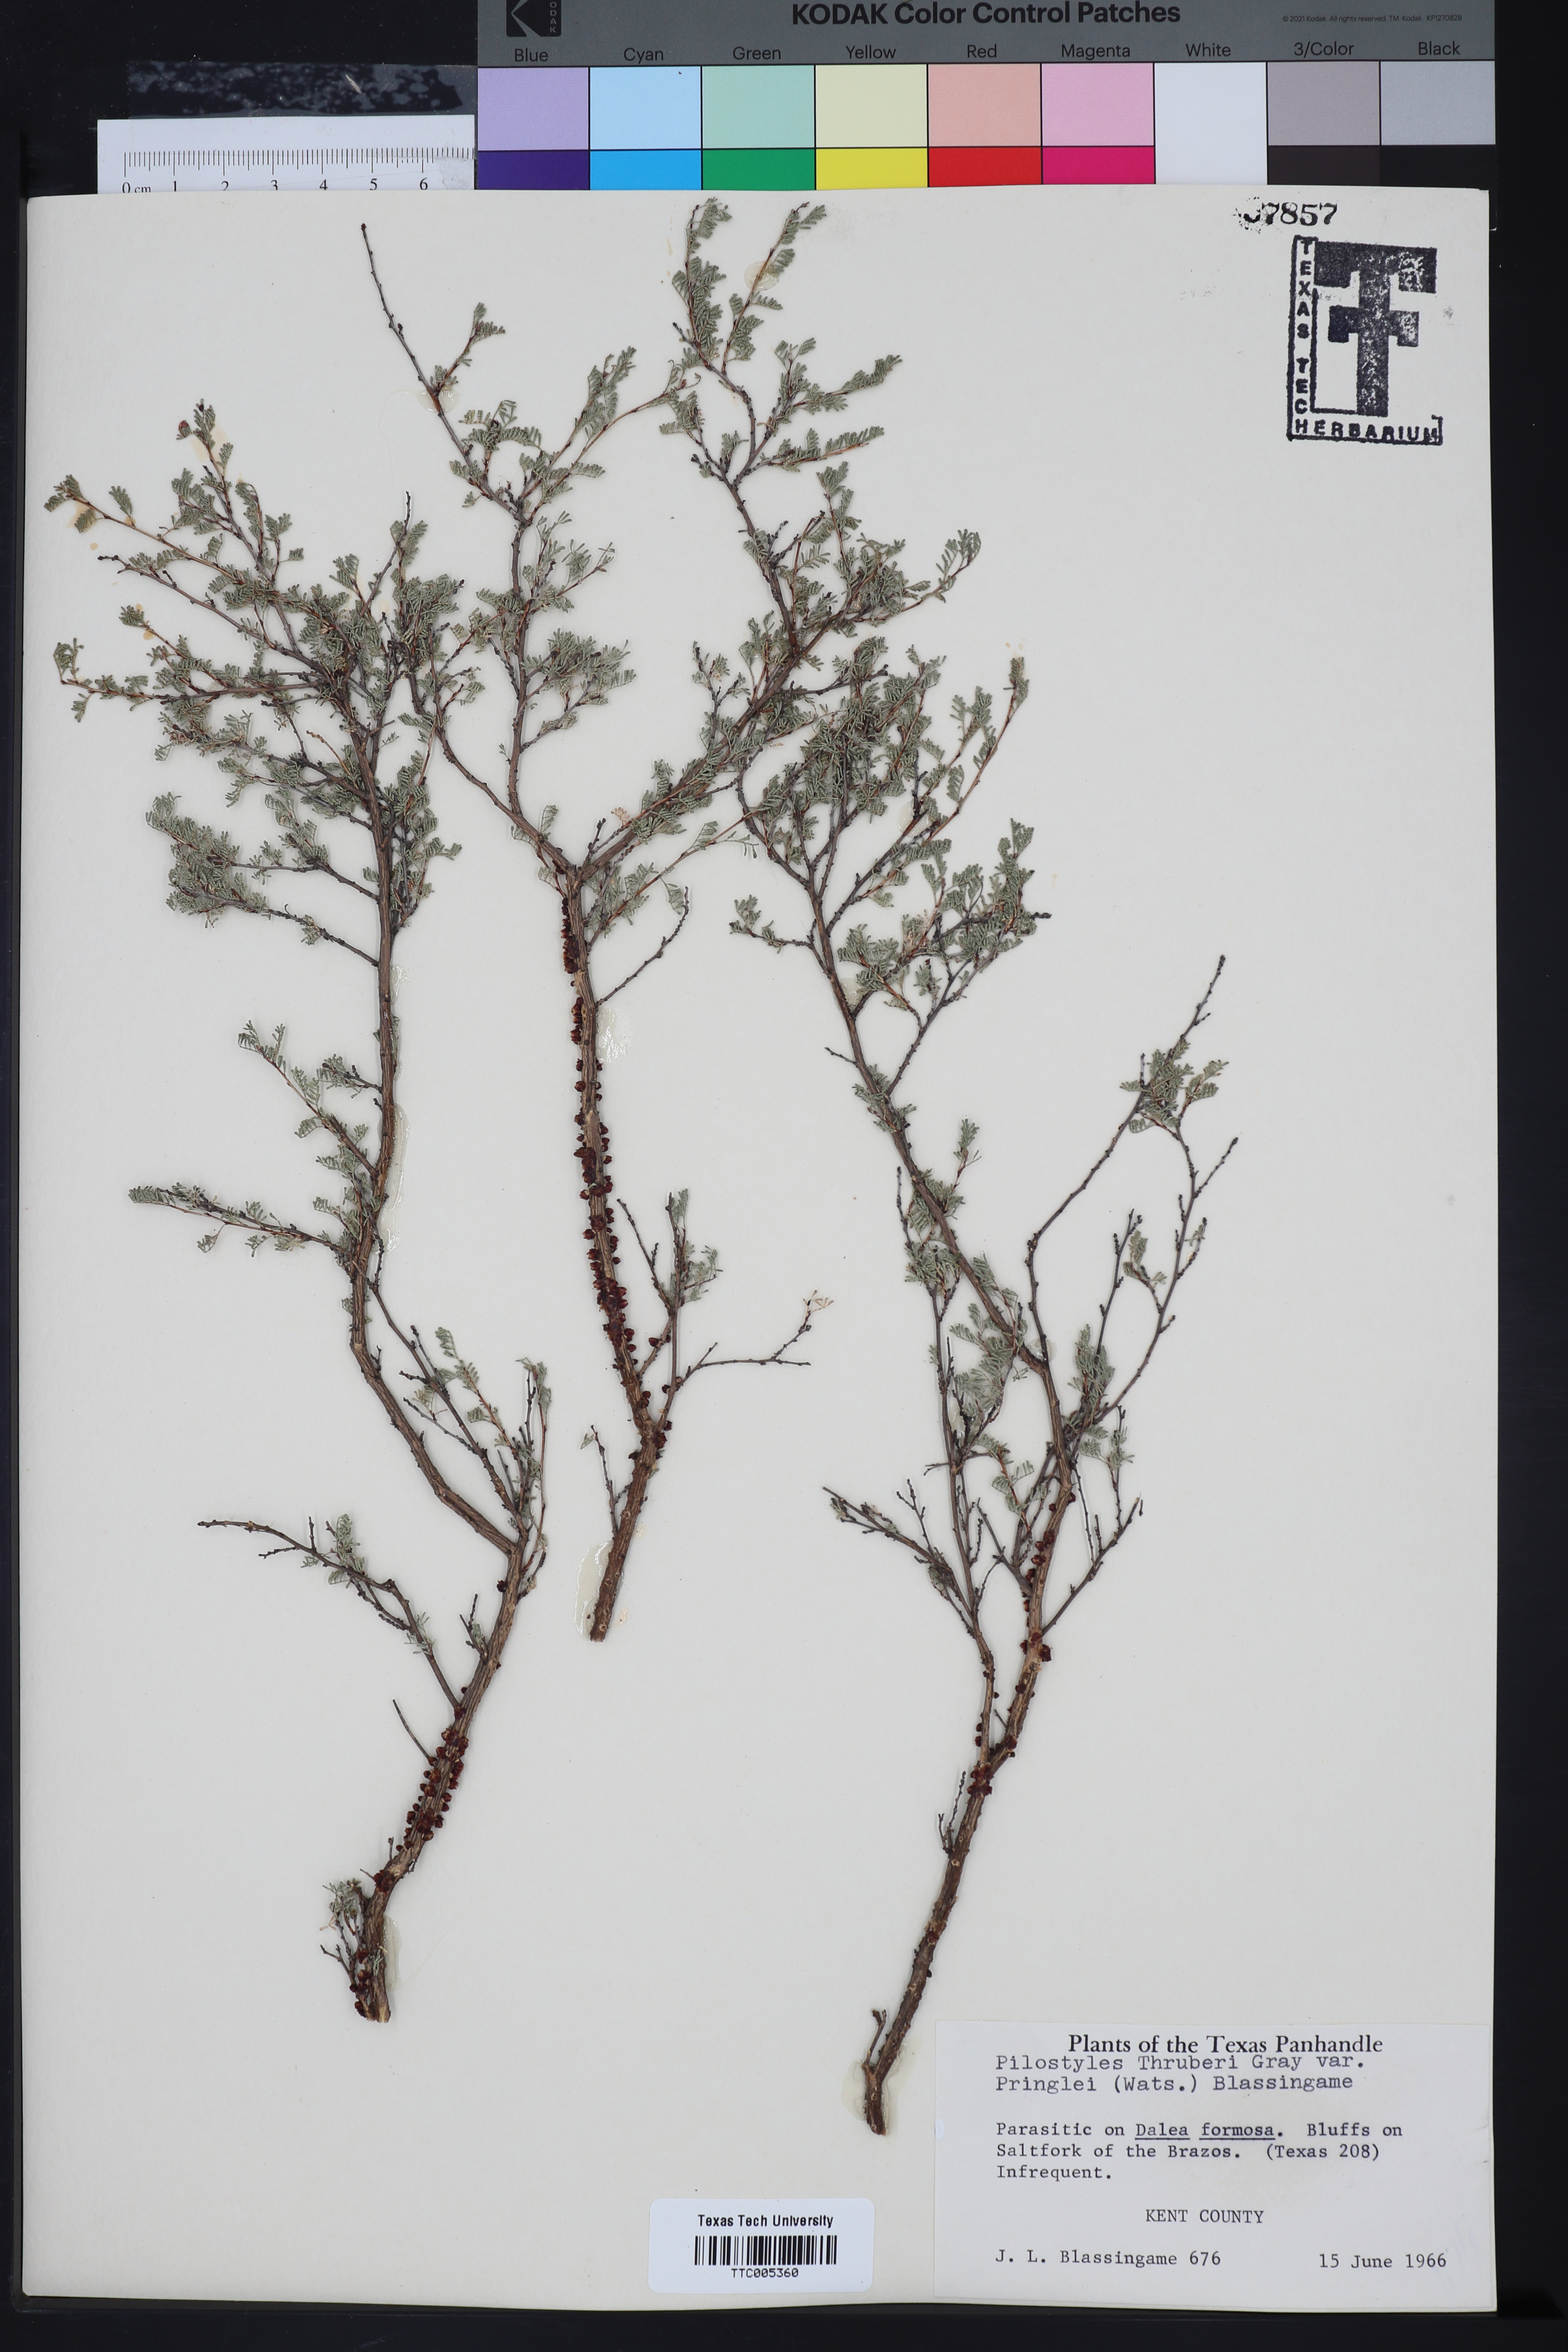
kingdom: Plantae
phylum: Tracheophyta
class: Magnoliopsida
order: Cucurbitales
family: Apodanthaceae
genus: Pilostyles
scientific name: Pilostyles thurberi
